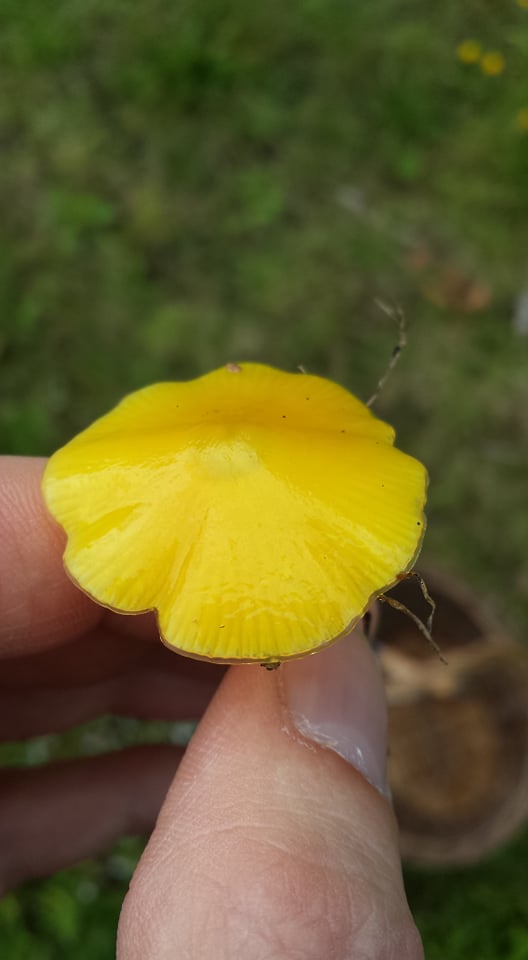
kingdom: Fungi
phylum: Basidiomycota
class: Agaricomycetes
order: Agaricales
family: Hygrophoraceae
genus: Hygrocybe
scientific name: Hygrocybe chlorophana
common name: gul vokshat
